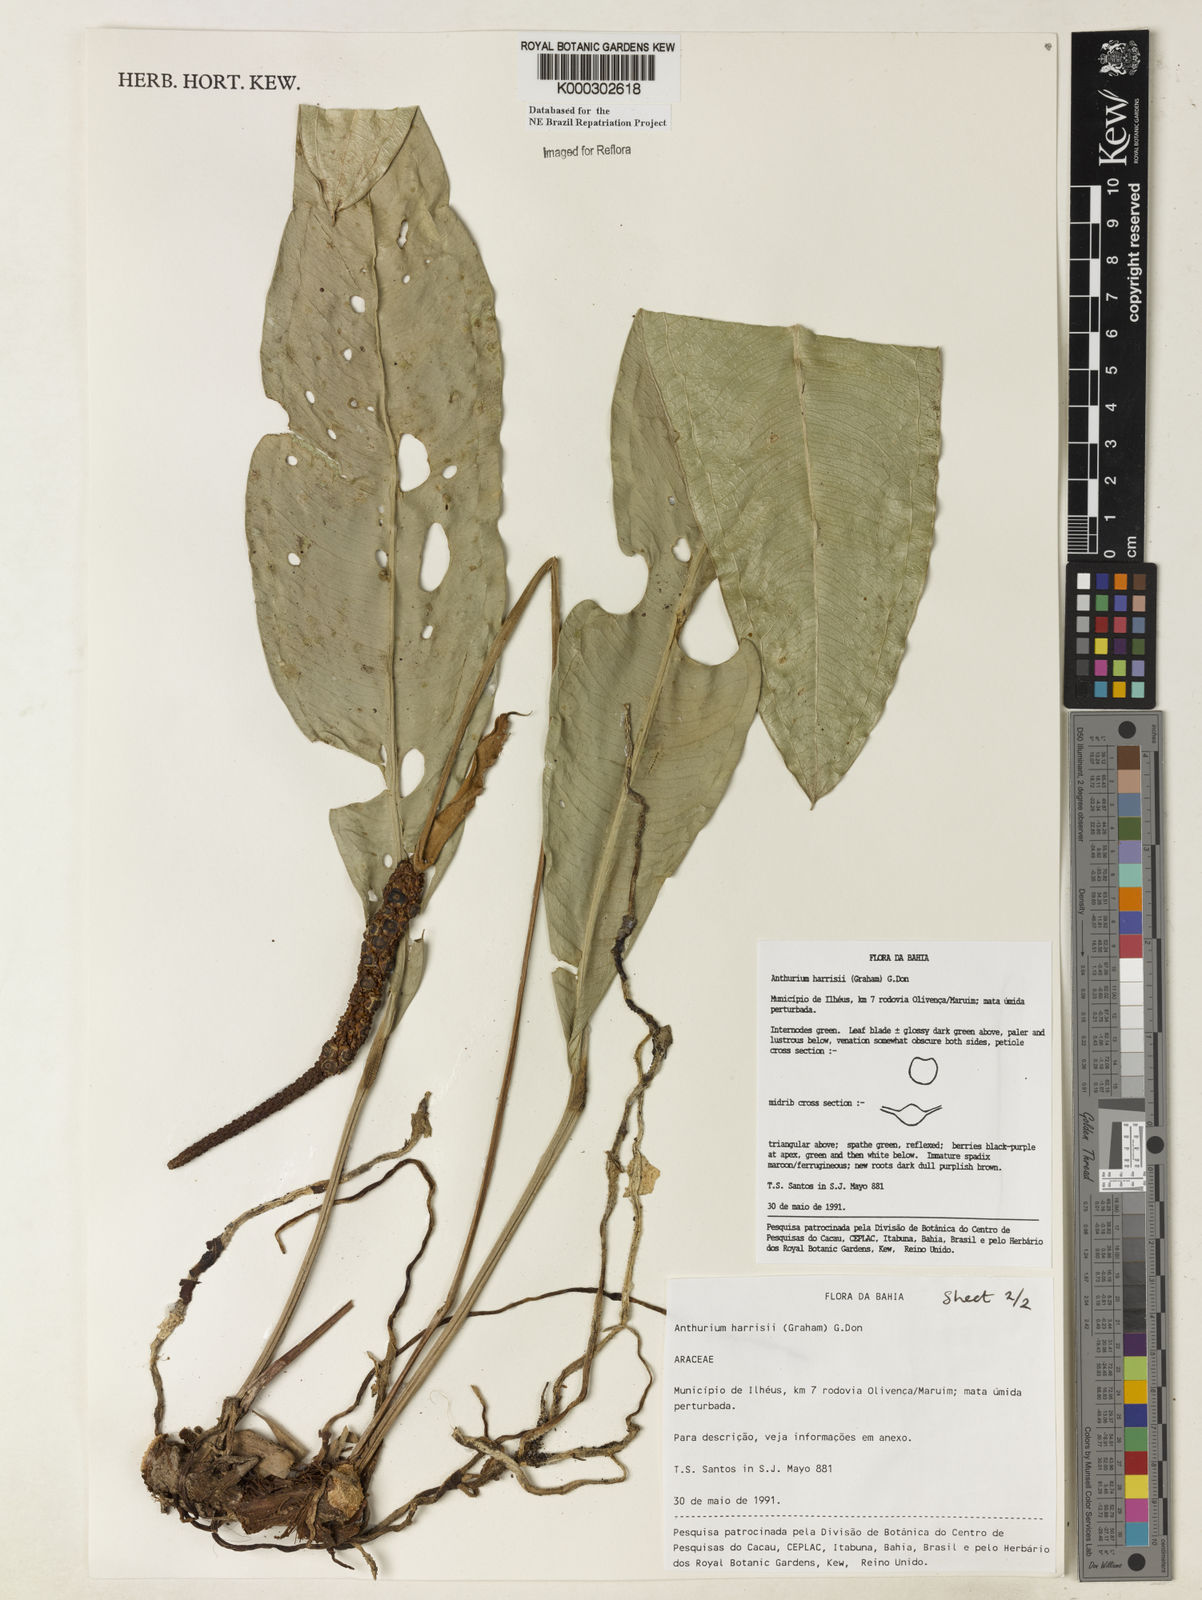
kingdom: Plantae
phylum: Tracheophyta
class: Liliopsida
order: Alismatales
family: Araceae
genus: Anthurium
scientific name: Anthurium harrisii
